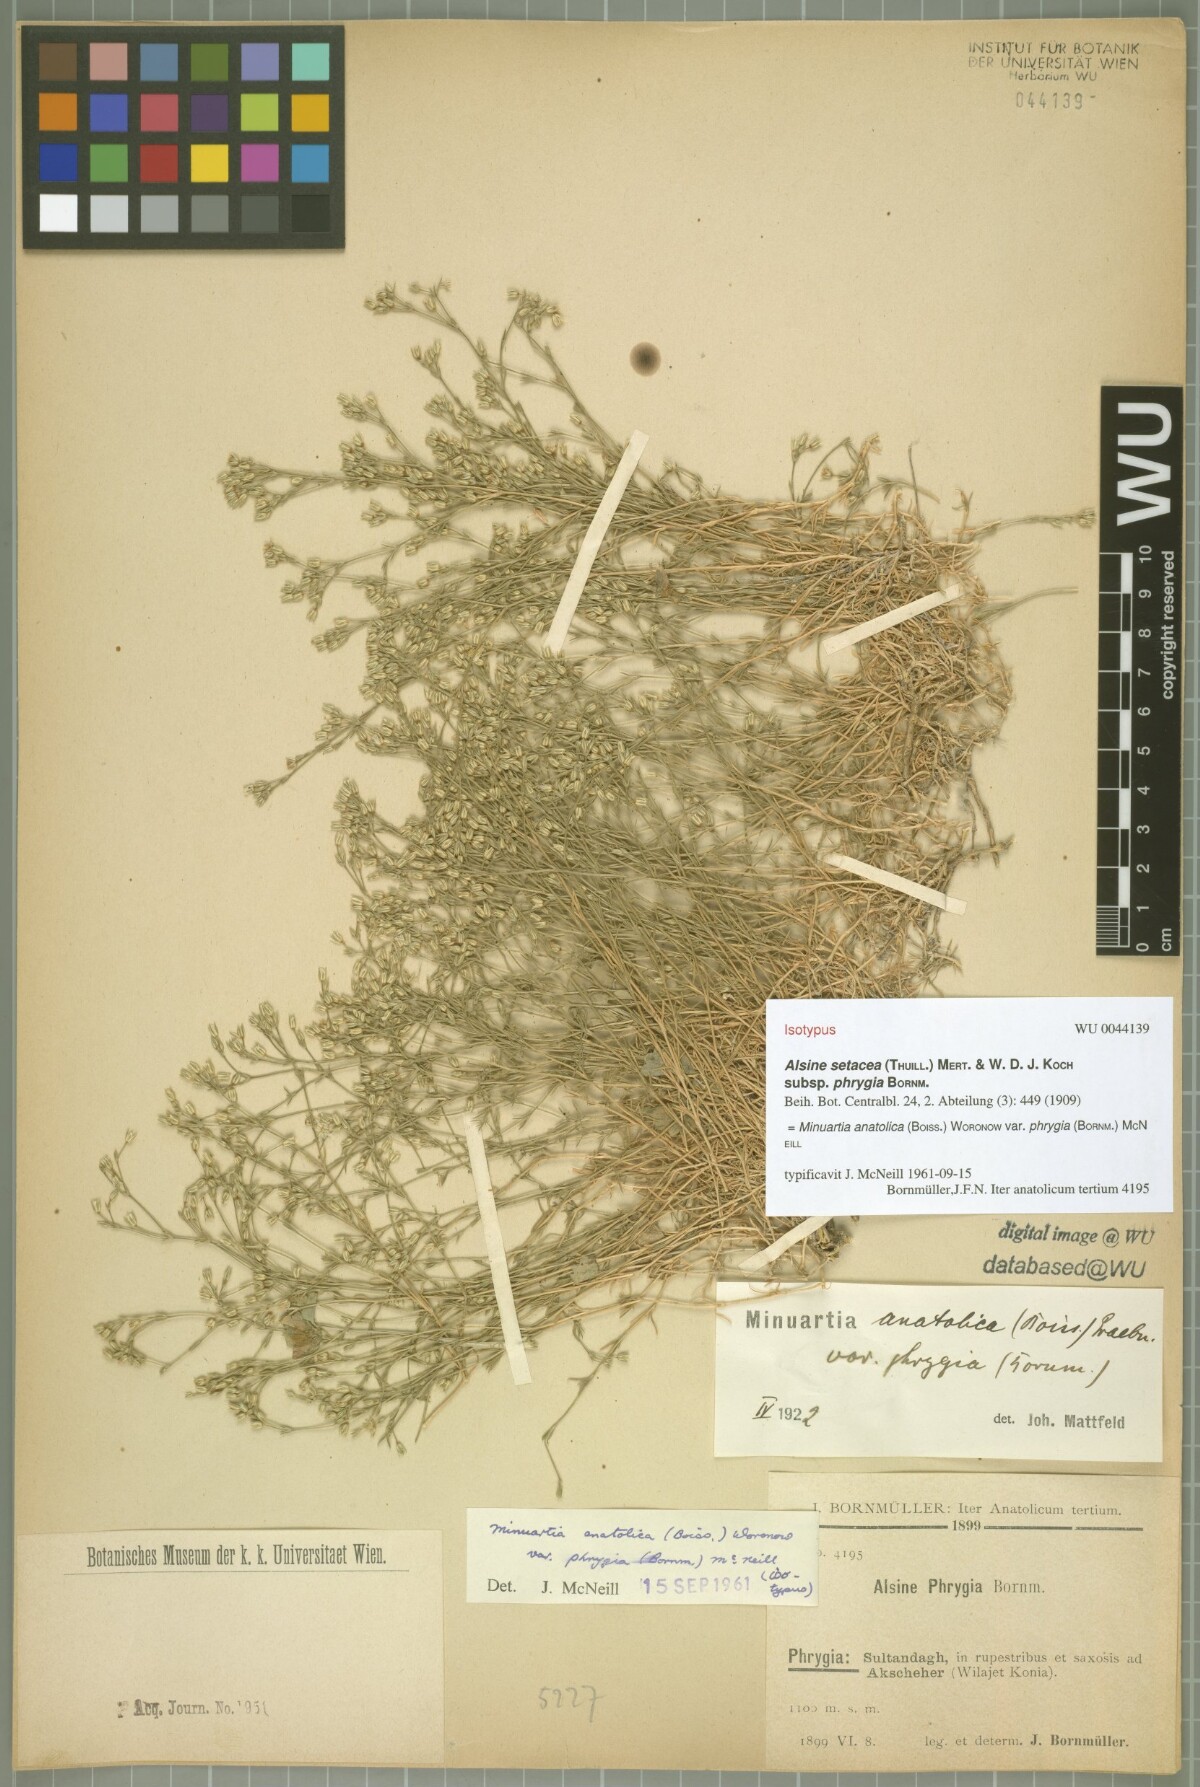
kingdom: Plantae
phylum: Tracheophyta
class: Magnoliopsida
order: Caryophyllales
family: Caryophyllaceae
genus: Minuartia
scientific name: Minuartia anatolica
